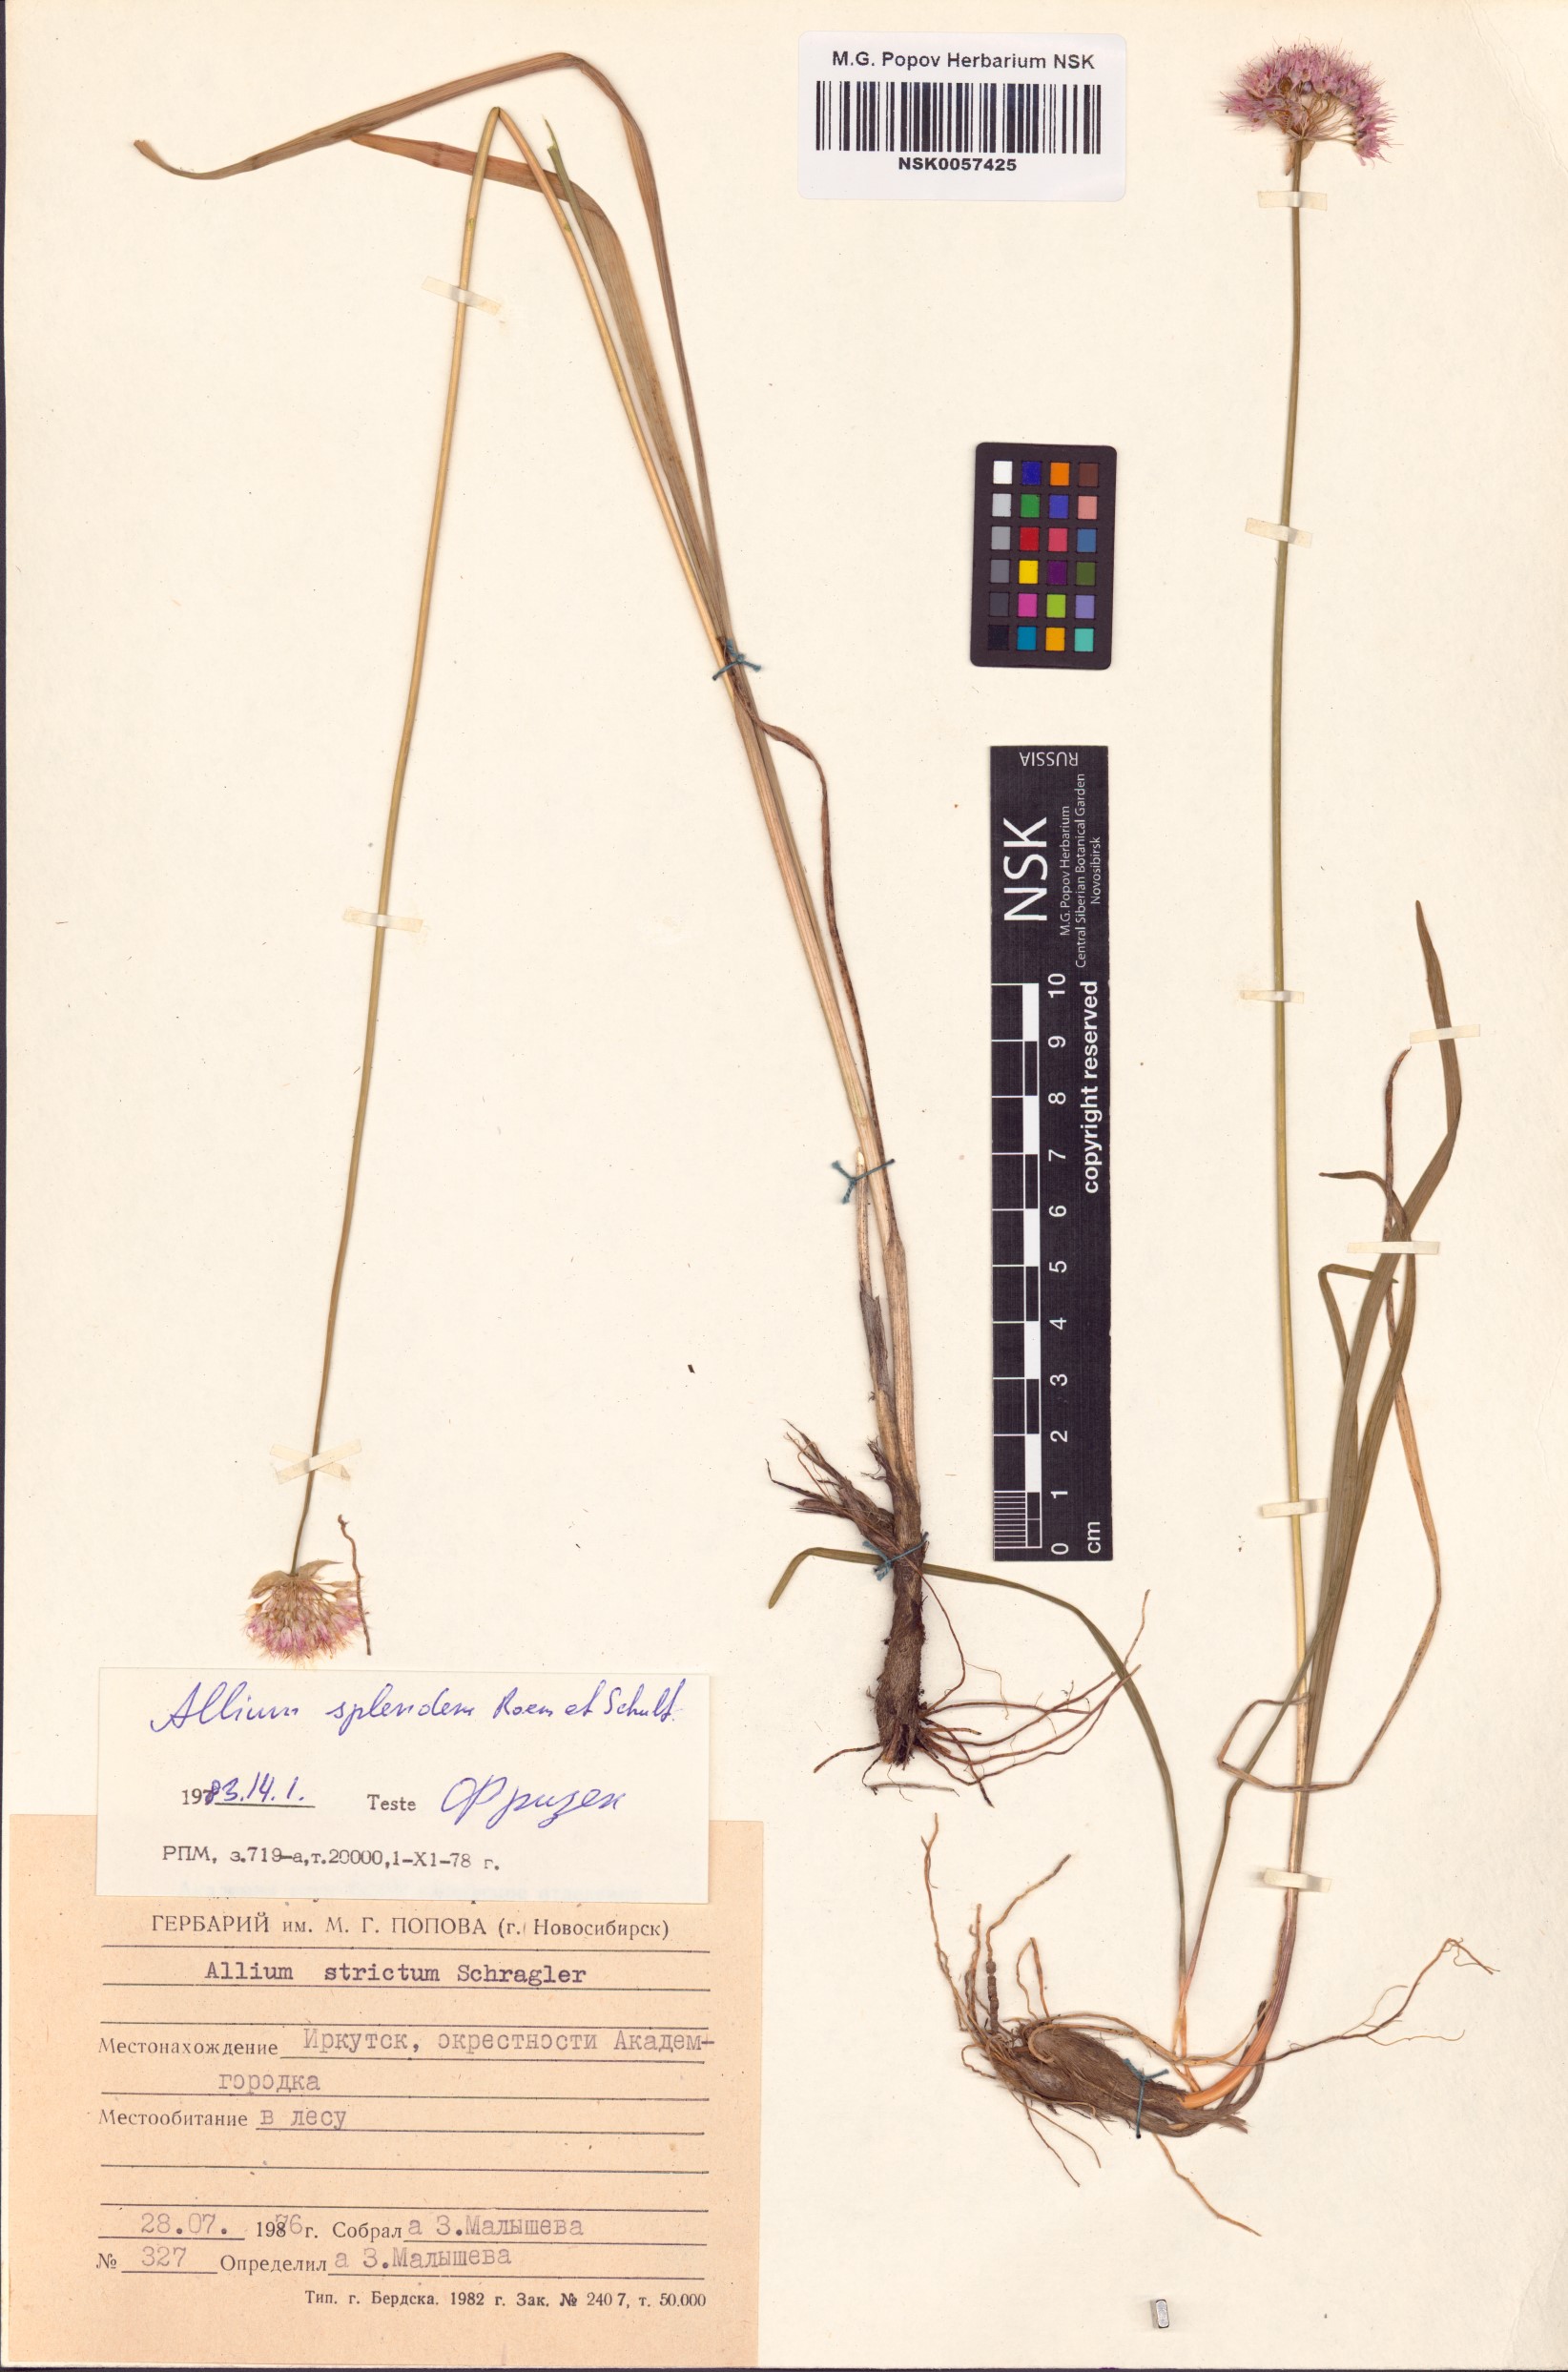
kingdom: Plantae
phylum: Tracheophyta
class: Liliopsida
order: Asparagales
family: Amaryllidaceae
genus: Allium
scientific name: Allium splendens
